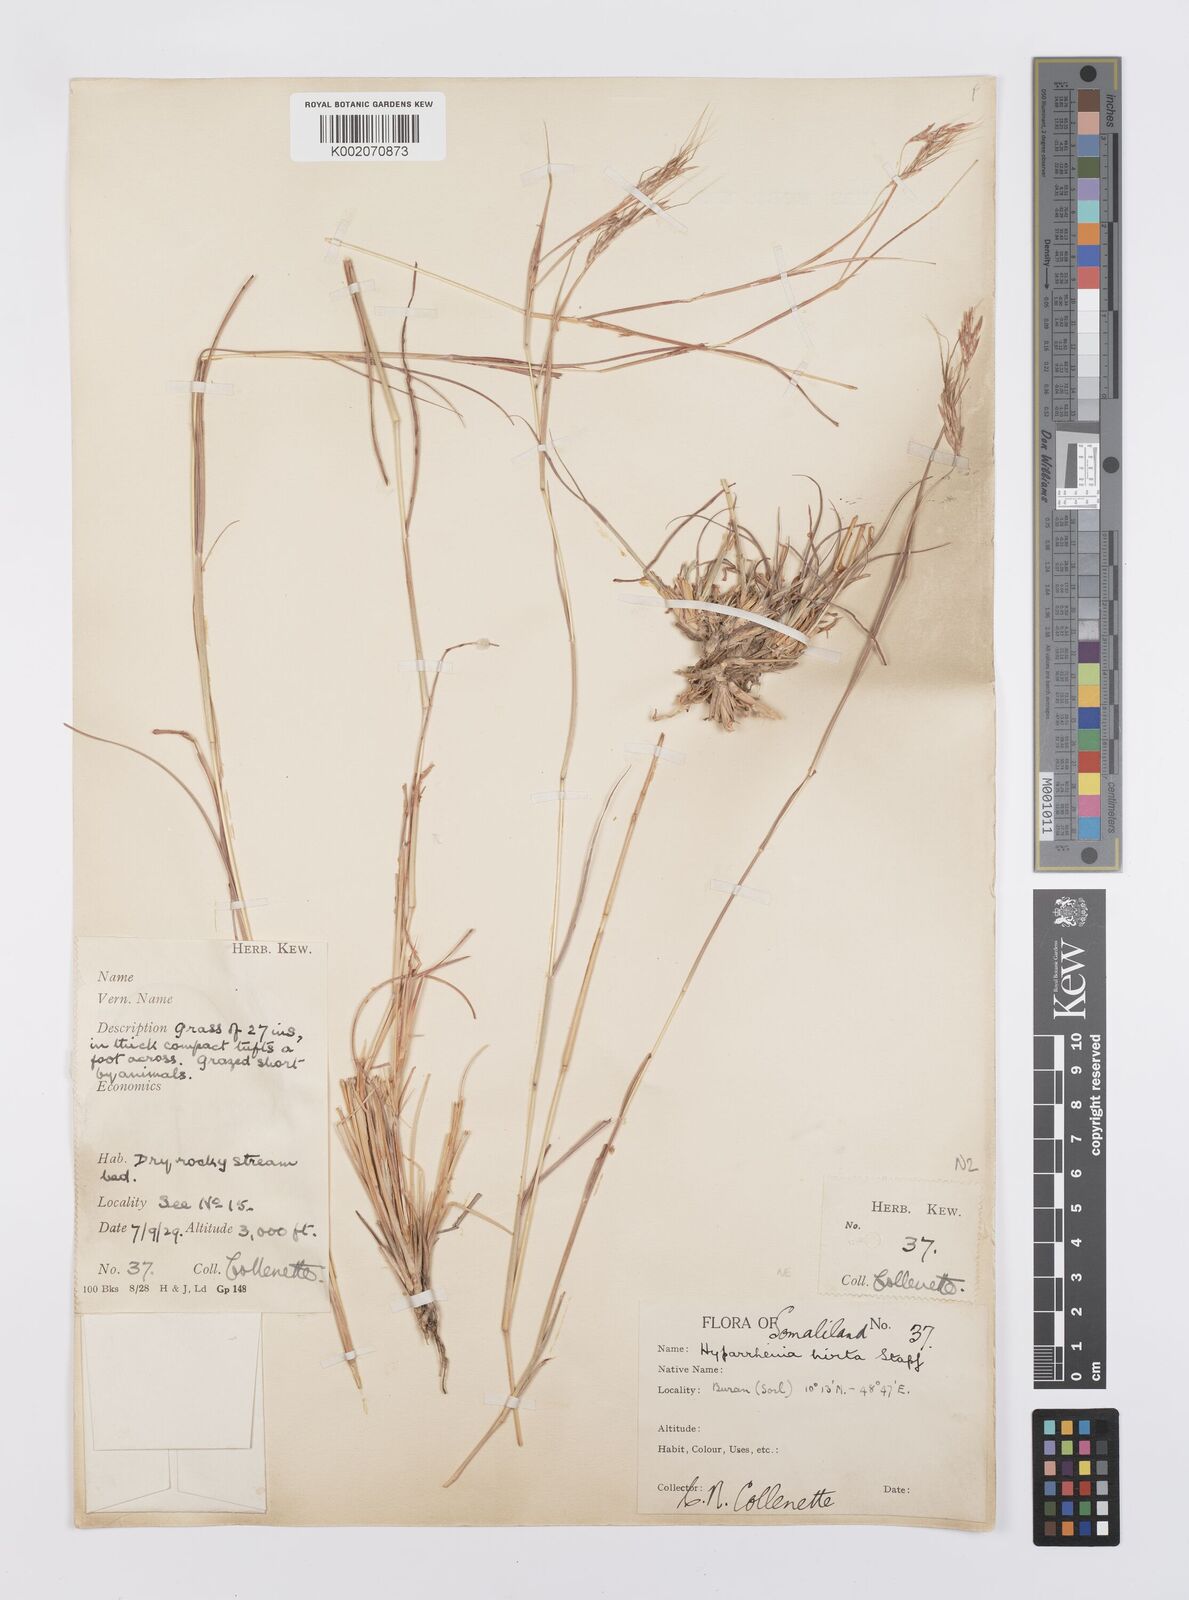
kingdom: Plantae
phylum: Tracheophyta
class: Liliopsida
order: Poales
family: Poaceae
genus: Hyparrhenia
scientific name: Hyparrhenia hirta
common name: Thatching grass
